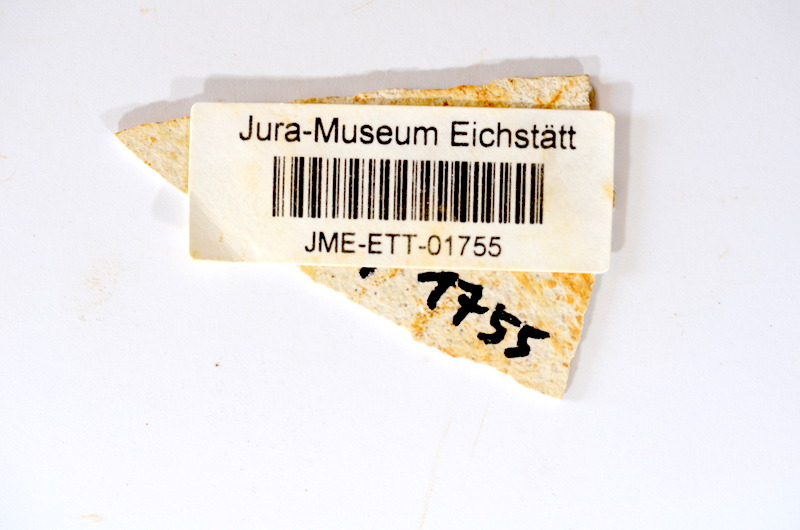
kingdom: Animalia
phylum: Chordata
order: Salmoniformes
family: Orthogonikleithridae
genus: Orthogonikleithrus
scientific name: Orthogonikleithrus hoelli
